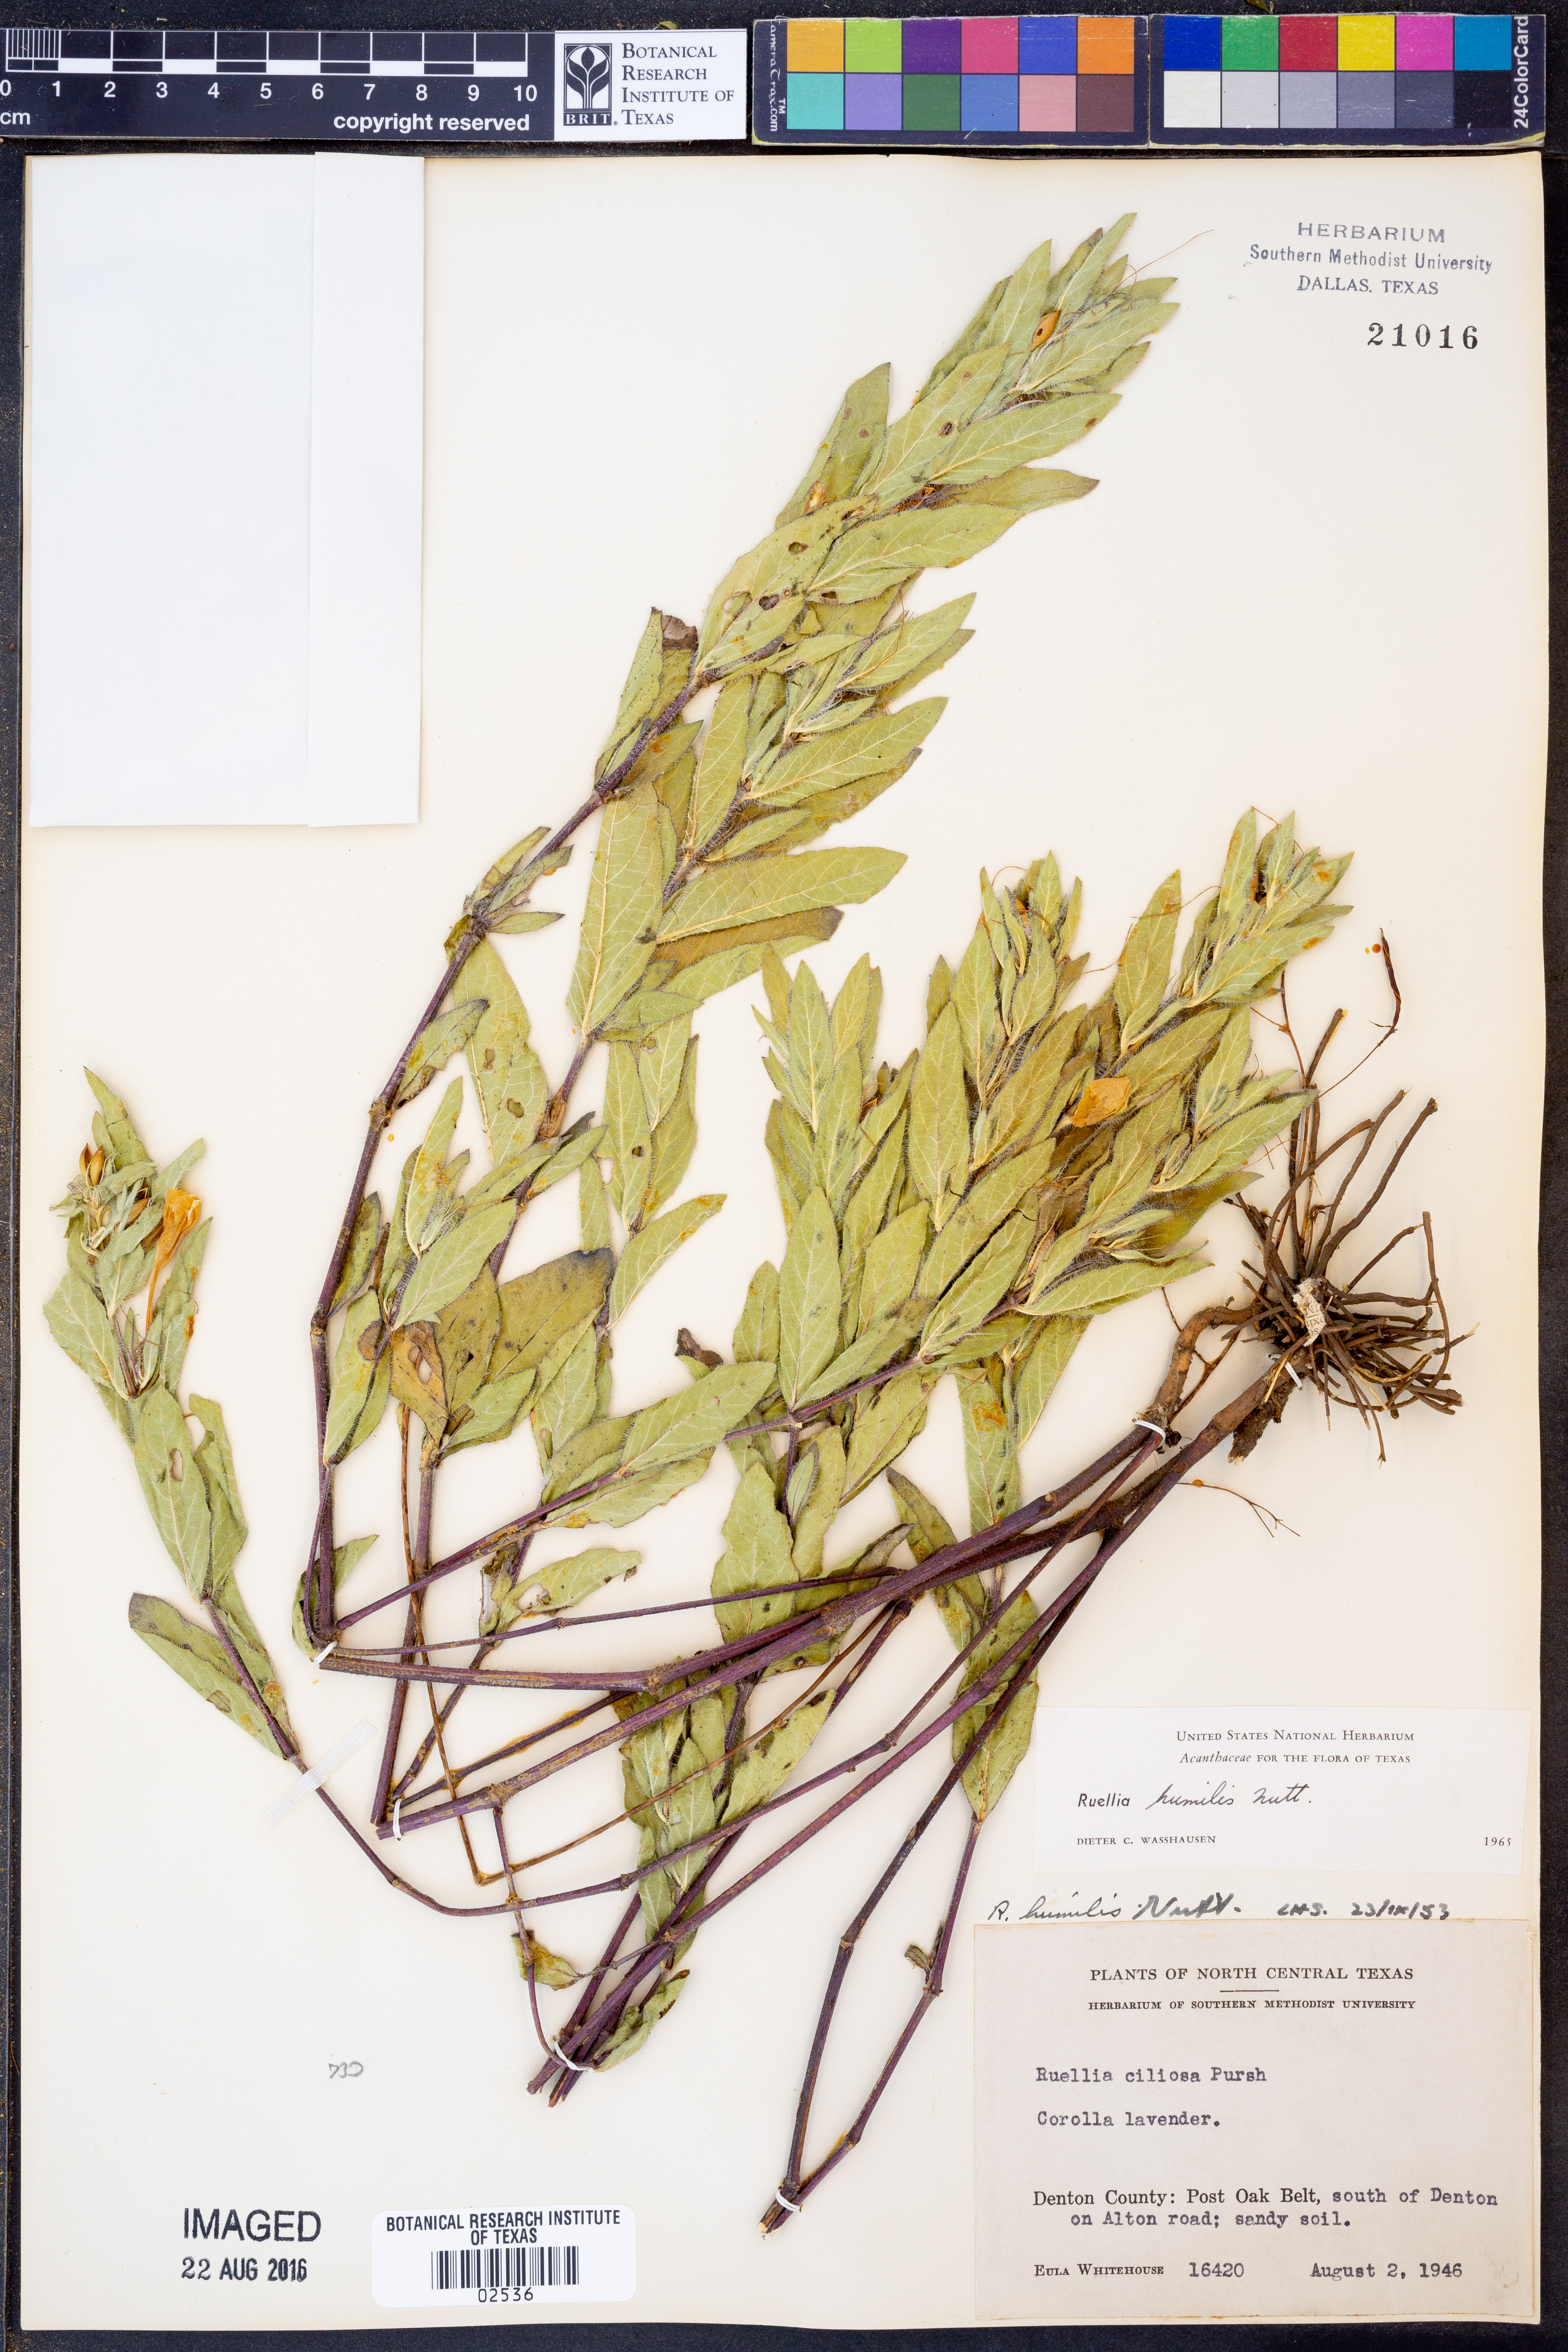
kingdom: Plantae
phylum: Tracheophyta
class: Magnoliopsida
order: Lamiales
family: Acanthaceae
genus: Ruellia
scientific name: Ruellia humilis
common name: Fringe-leaf ruellia
